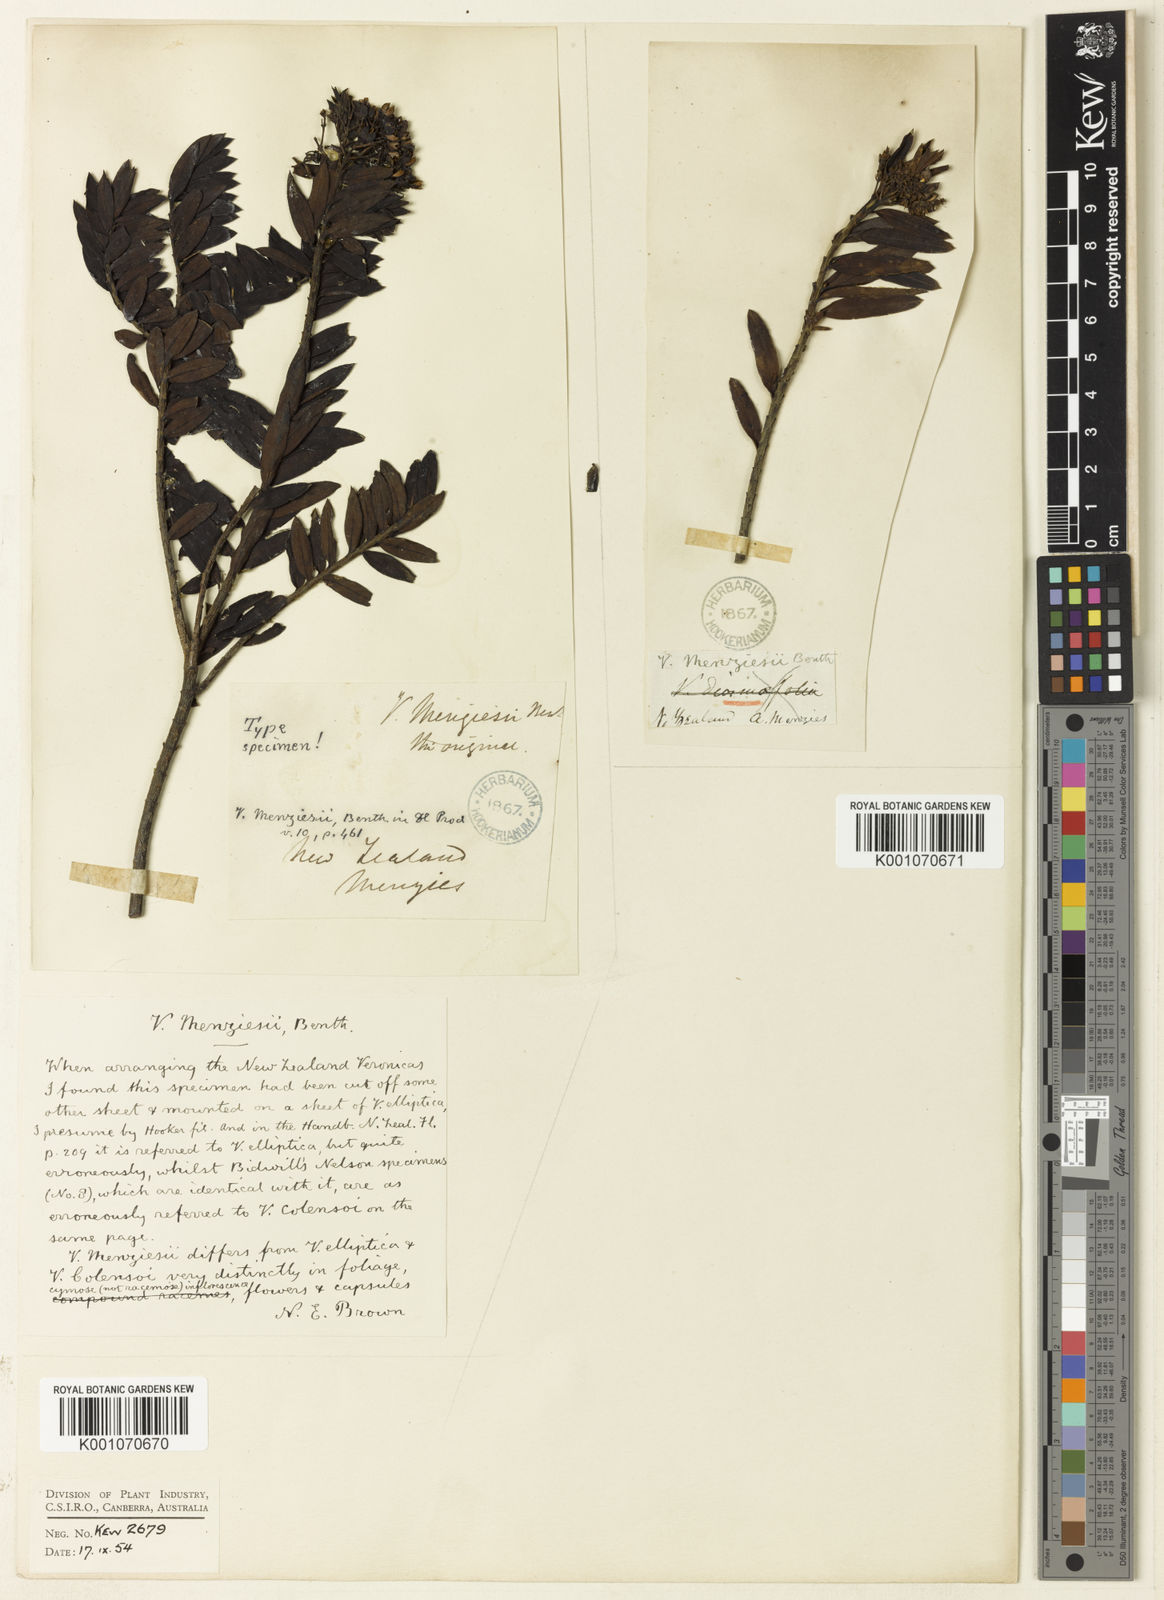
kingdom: Plantae
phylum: Tracheophyta
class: Magnoliopsida
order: Lamiales
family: Plantaginaceae
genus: Veronica
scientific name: Veronica diosmifolia
